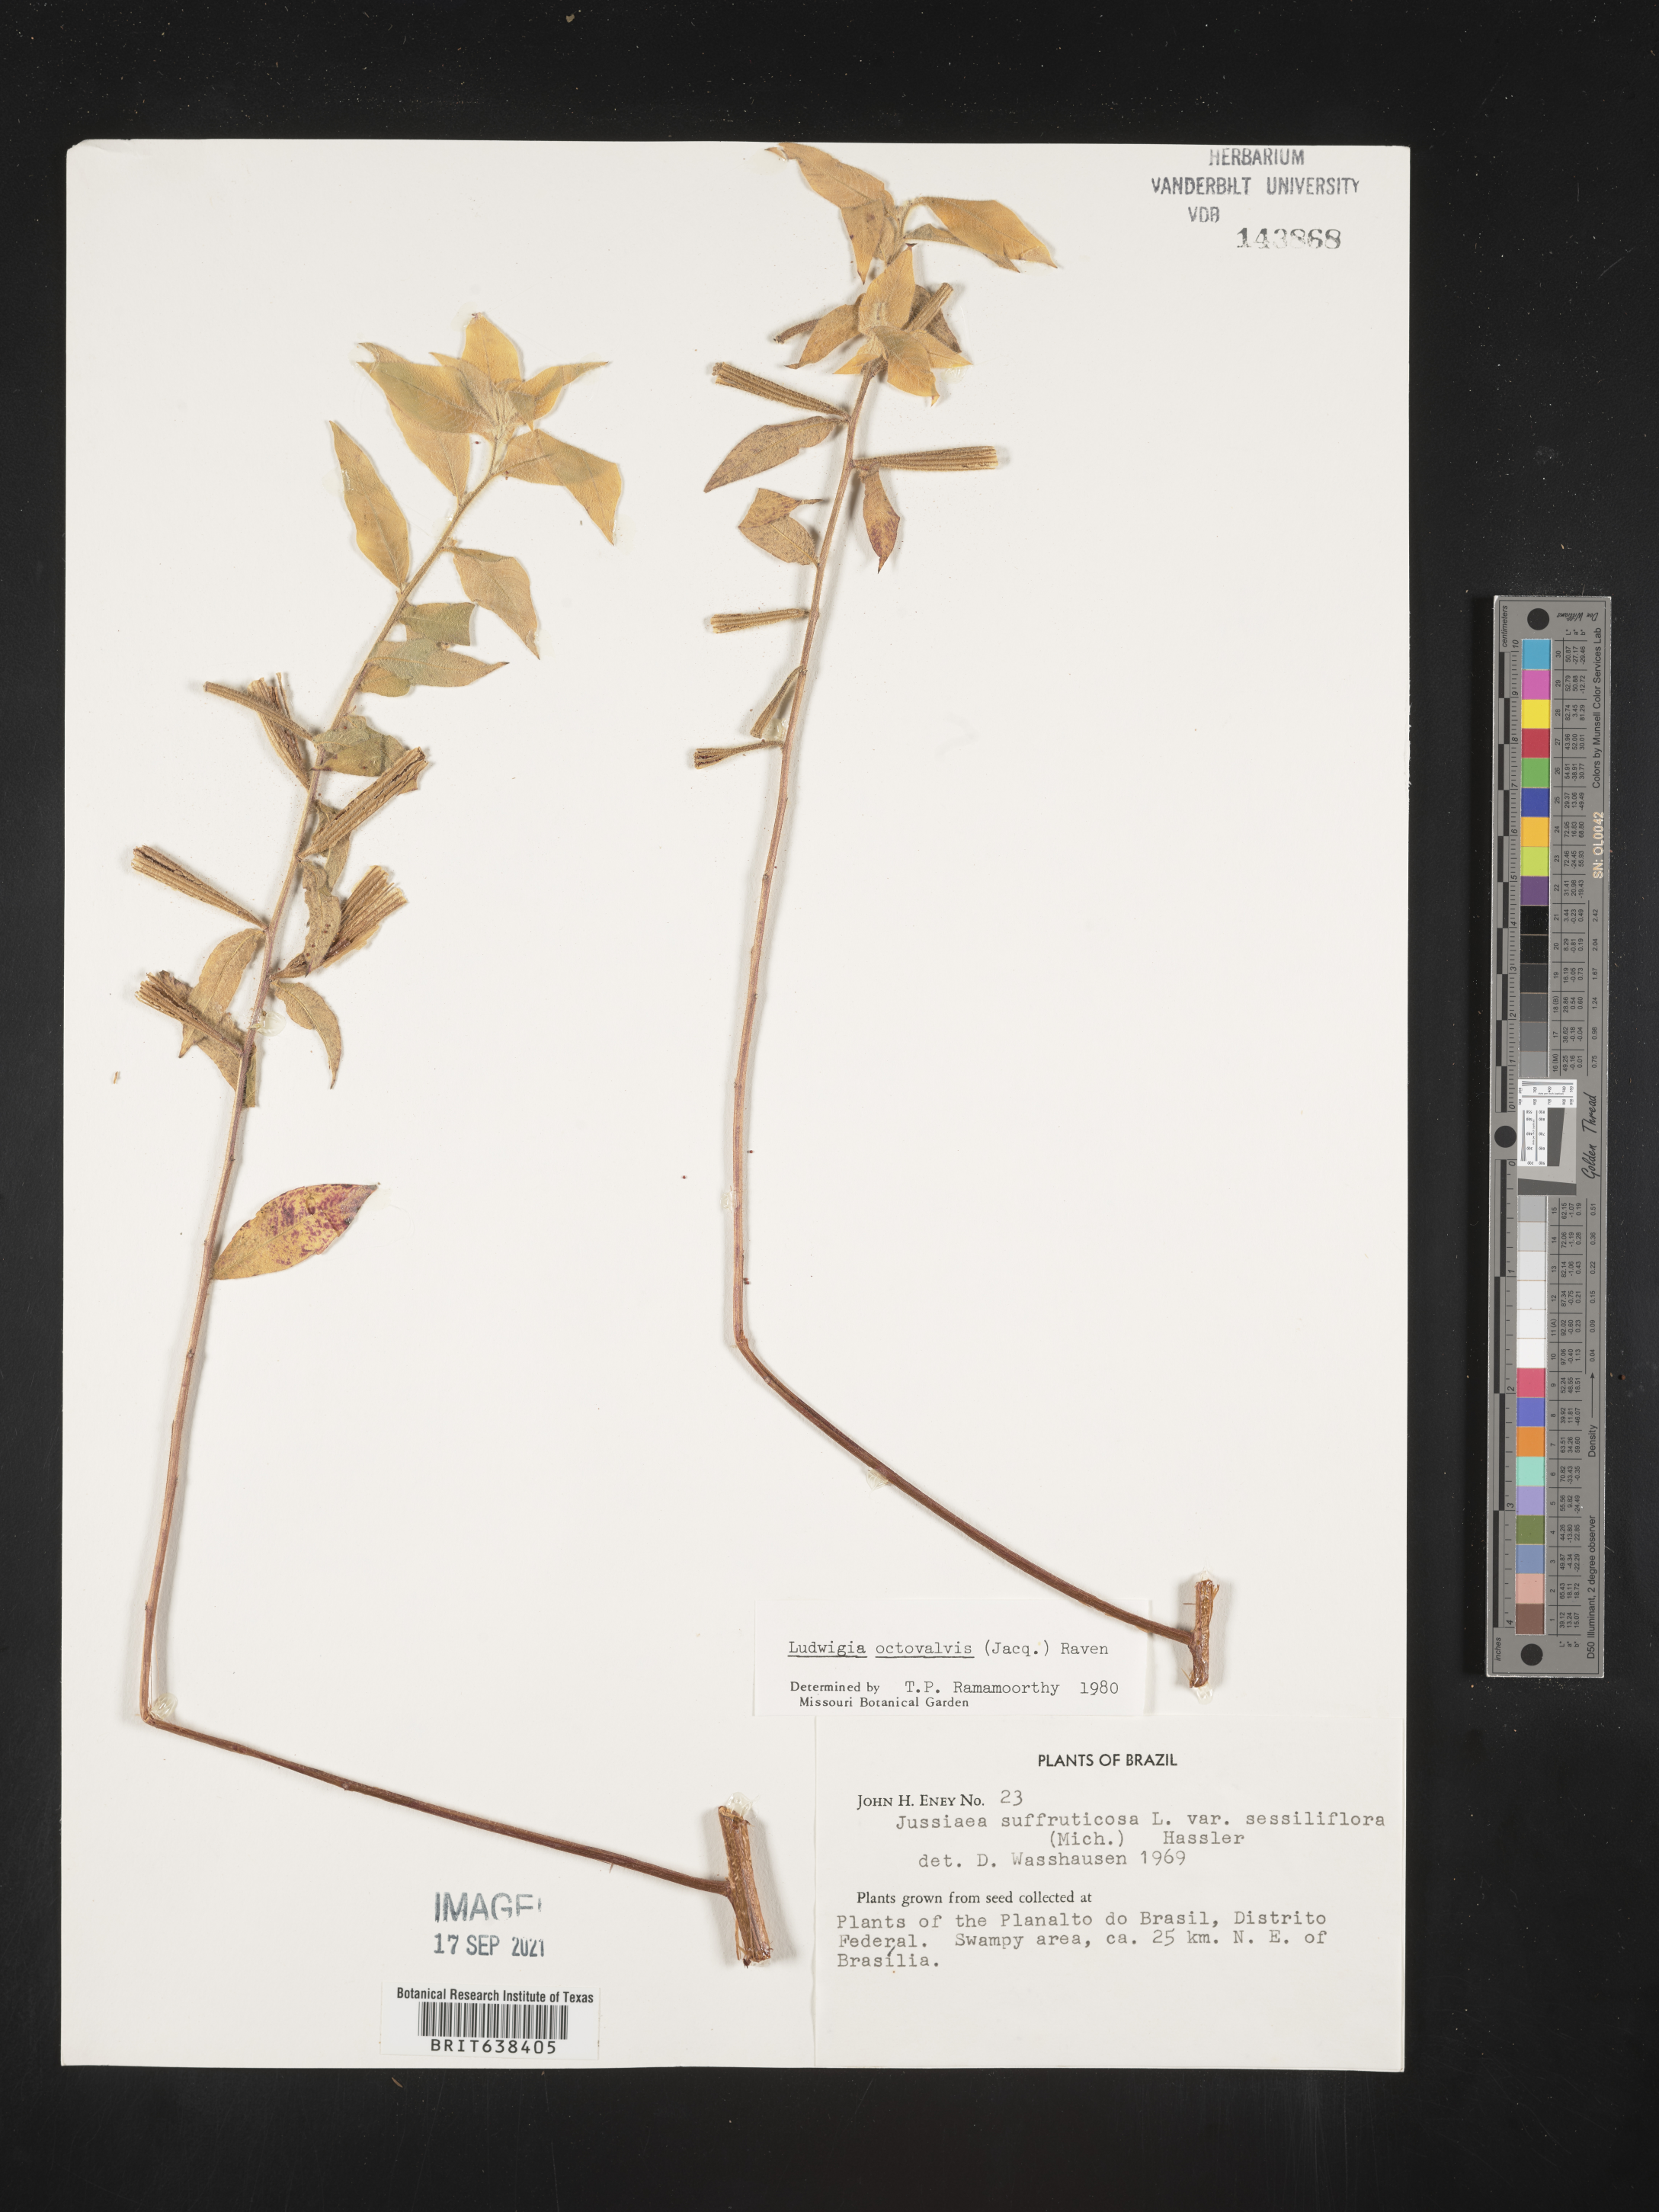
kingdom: Plantae
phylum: Tracheophyta
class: Magnoliopsida
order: Myrtales
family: Onagraceae
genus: Ludwigia
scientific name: Ludwigia
